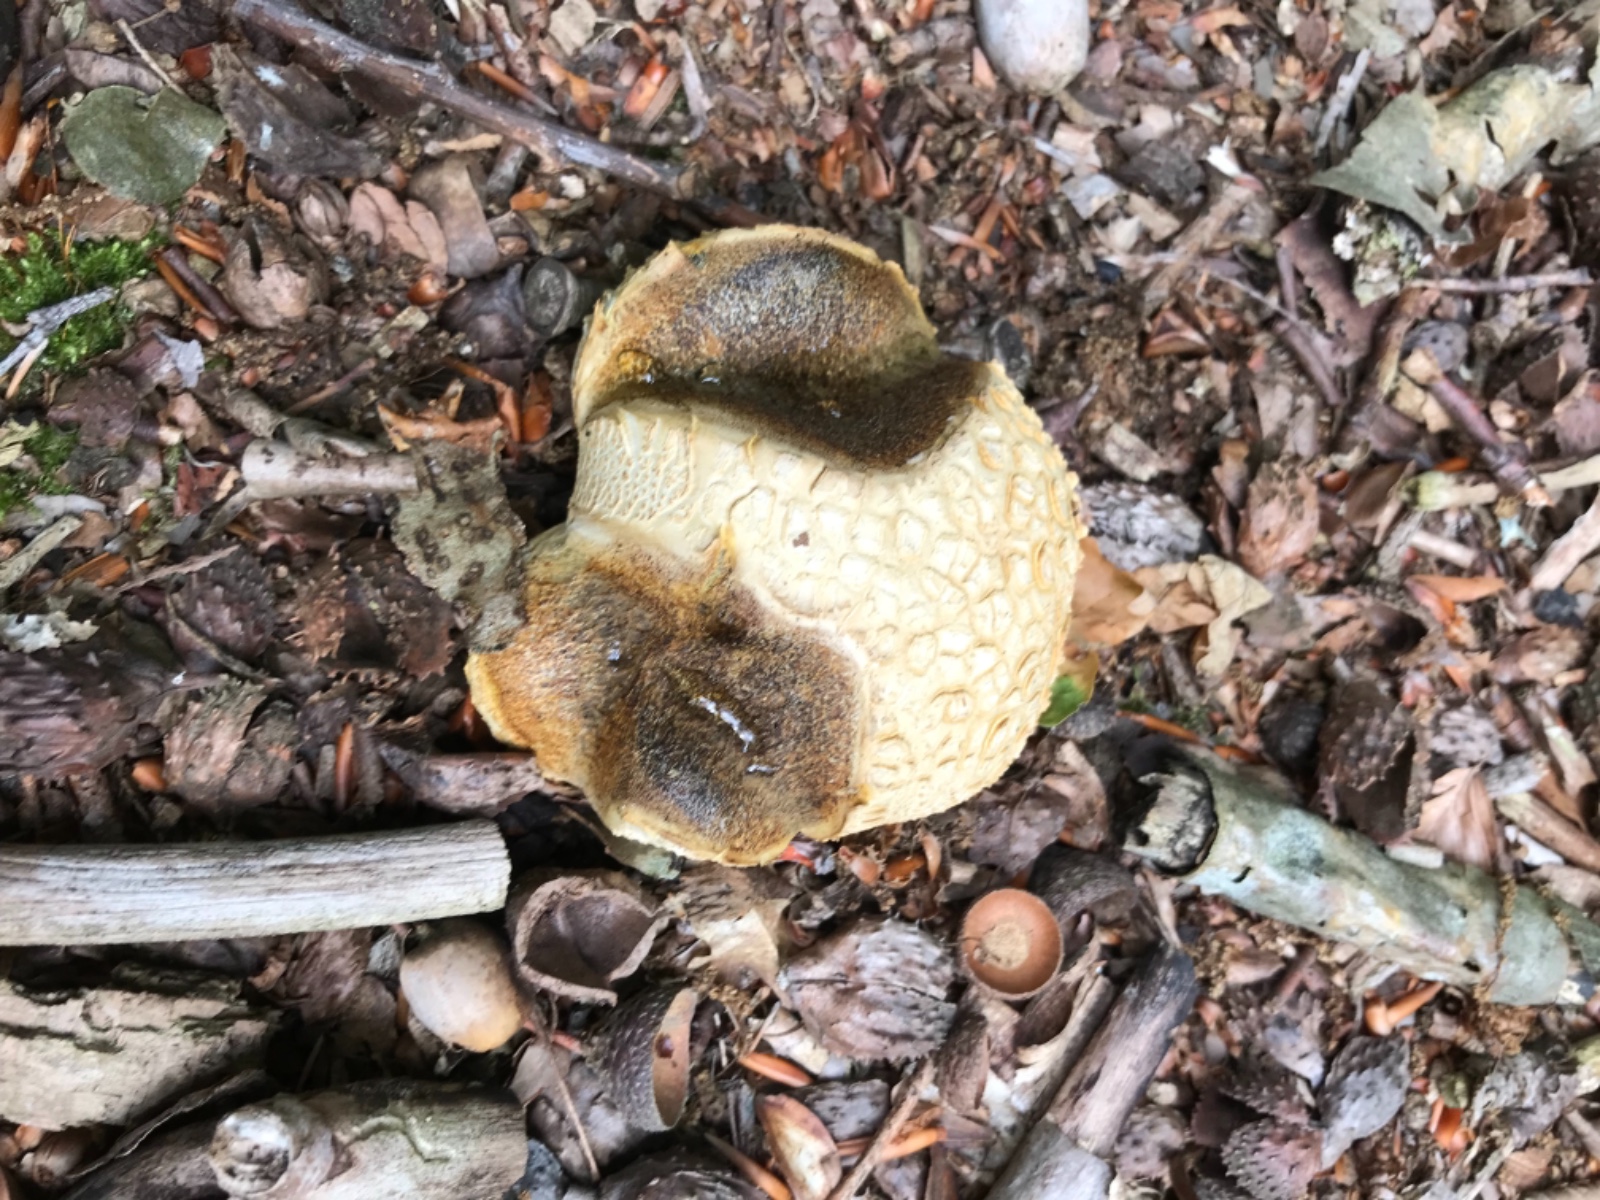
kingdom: Fungi
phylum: Basidiomycota
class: Agaricomycetes
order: Boletales
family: Sclerodermataceae
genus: Scleroderma
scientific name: Scleroderma citrinum
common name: almindelig bruskbold
